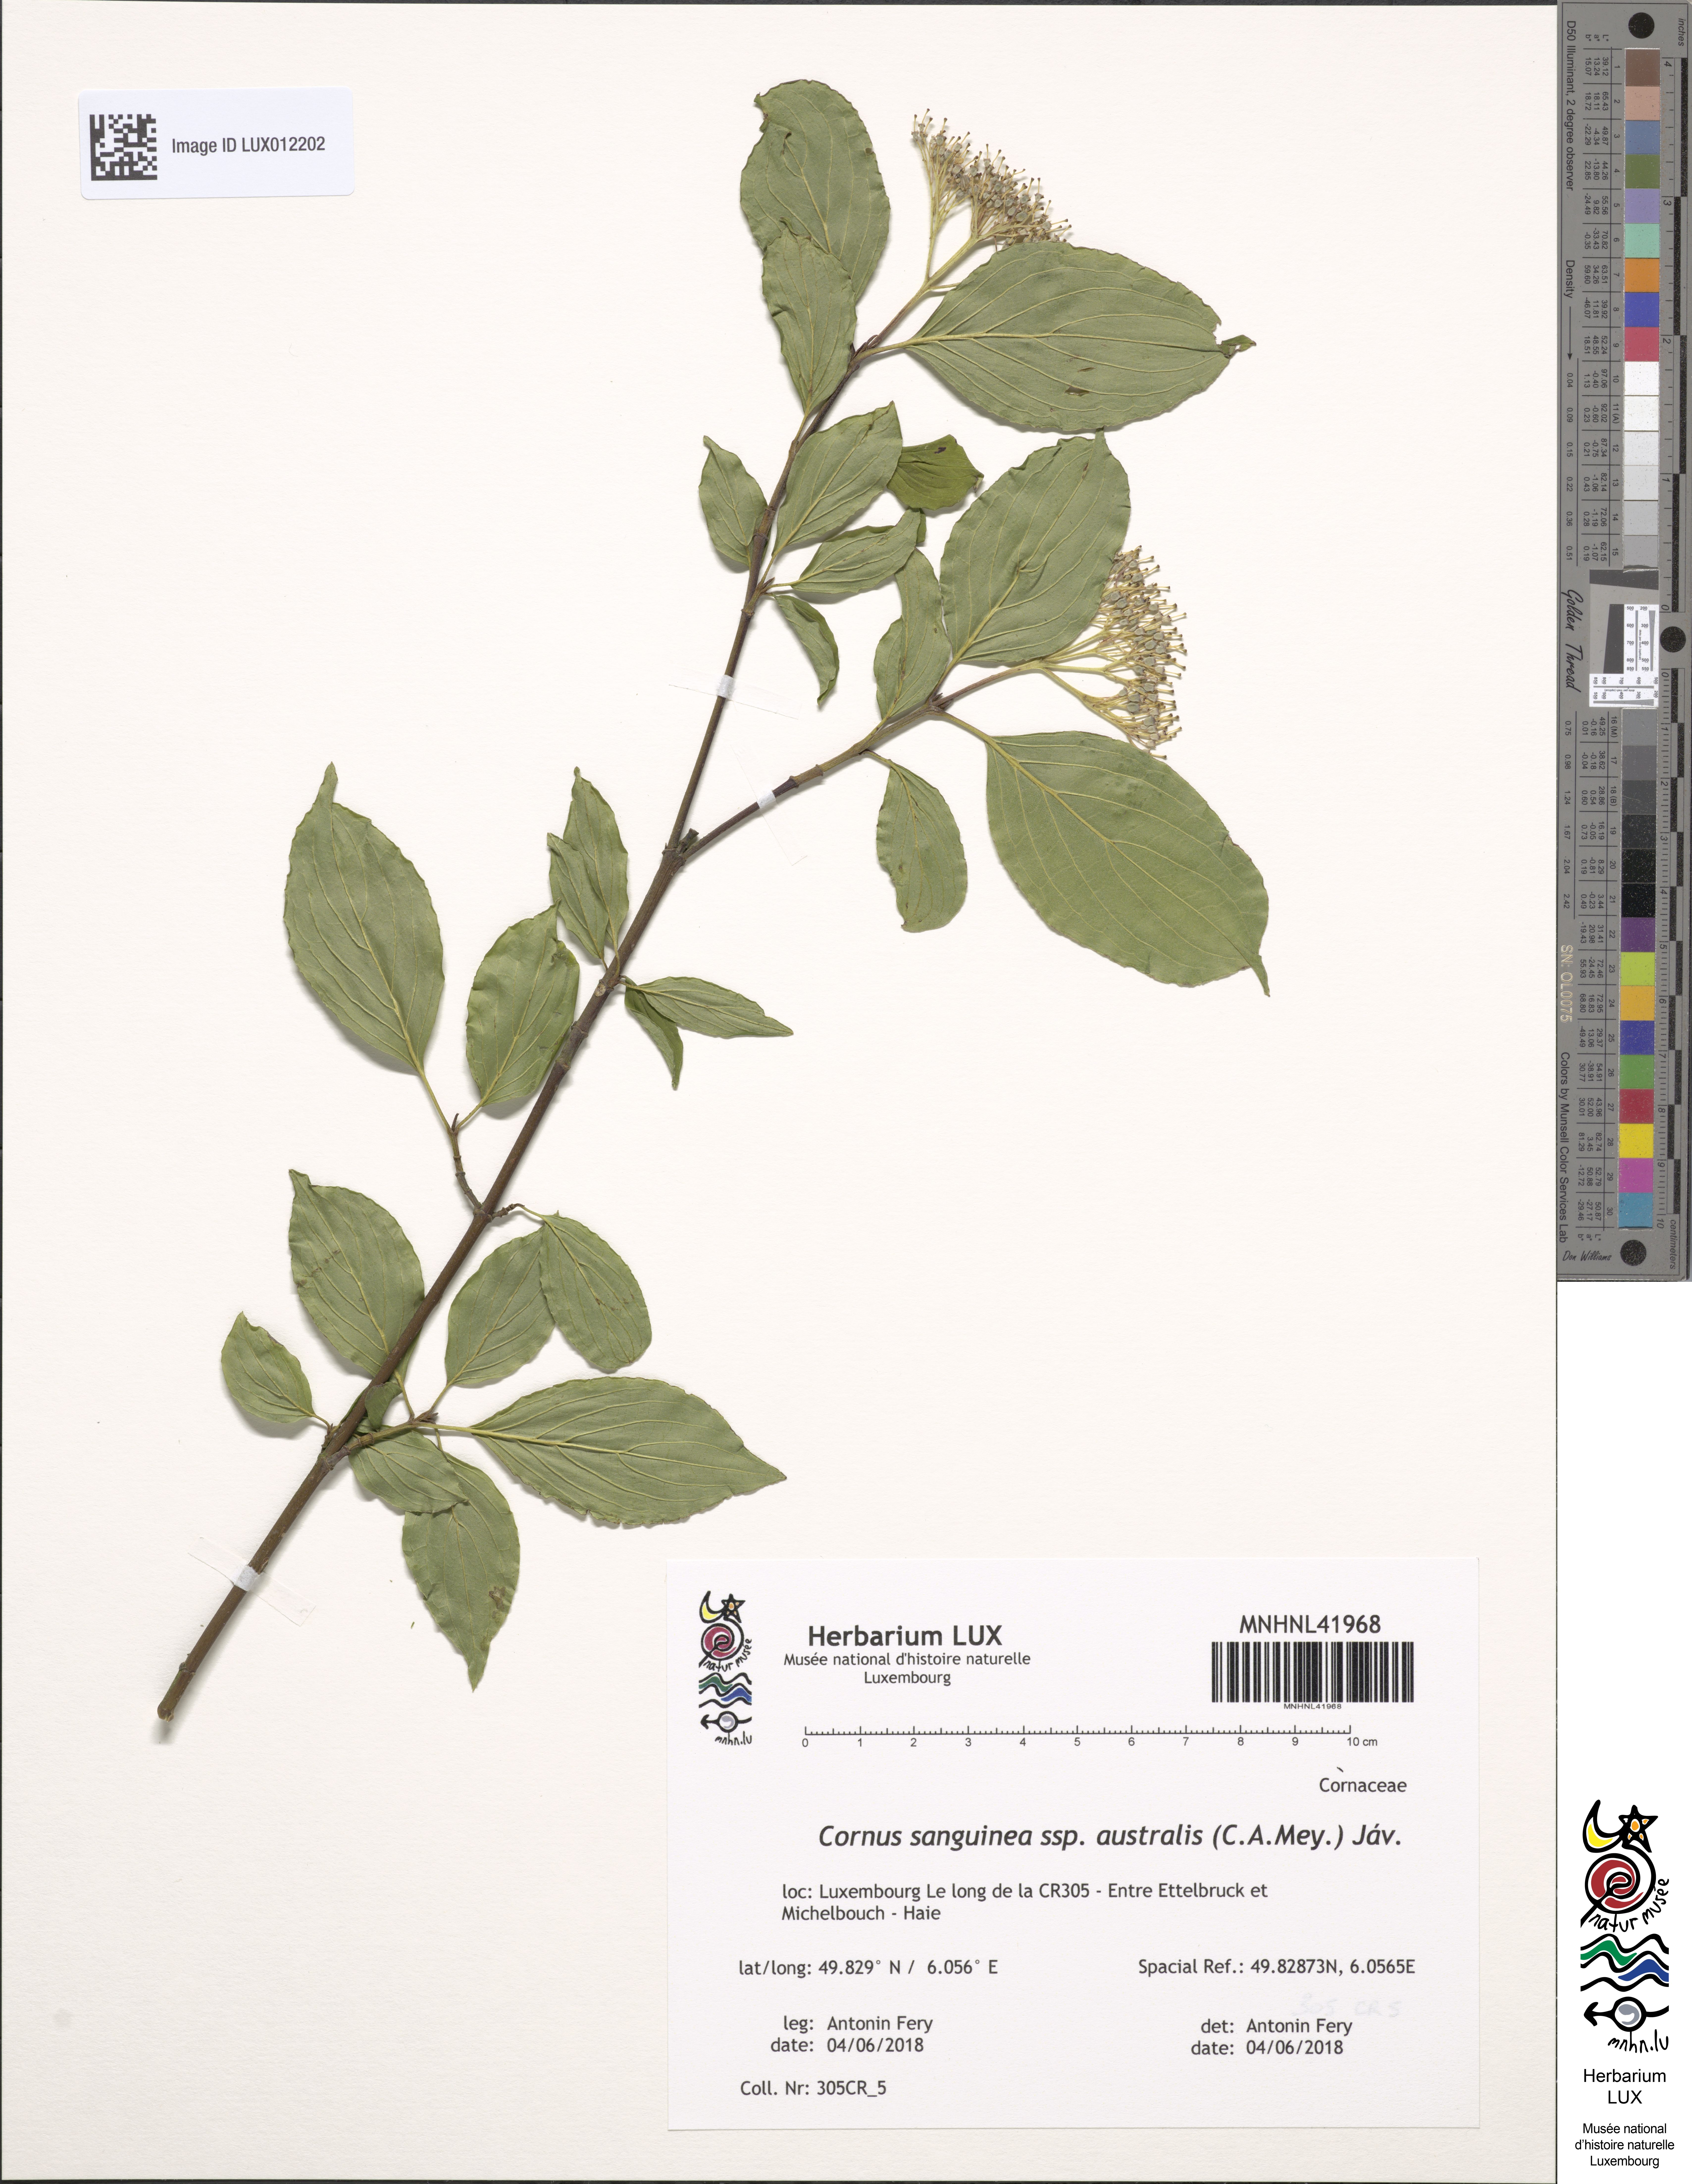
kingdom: Plantae
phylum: Tracheophyta
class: Magnoliopsida
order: Cornales
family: Cornaceae
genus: Cornus
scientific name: Cornus sanguinea
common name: Dogwood
